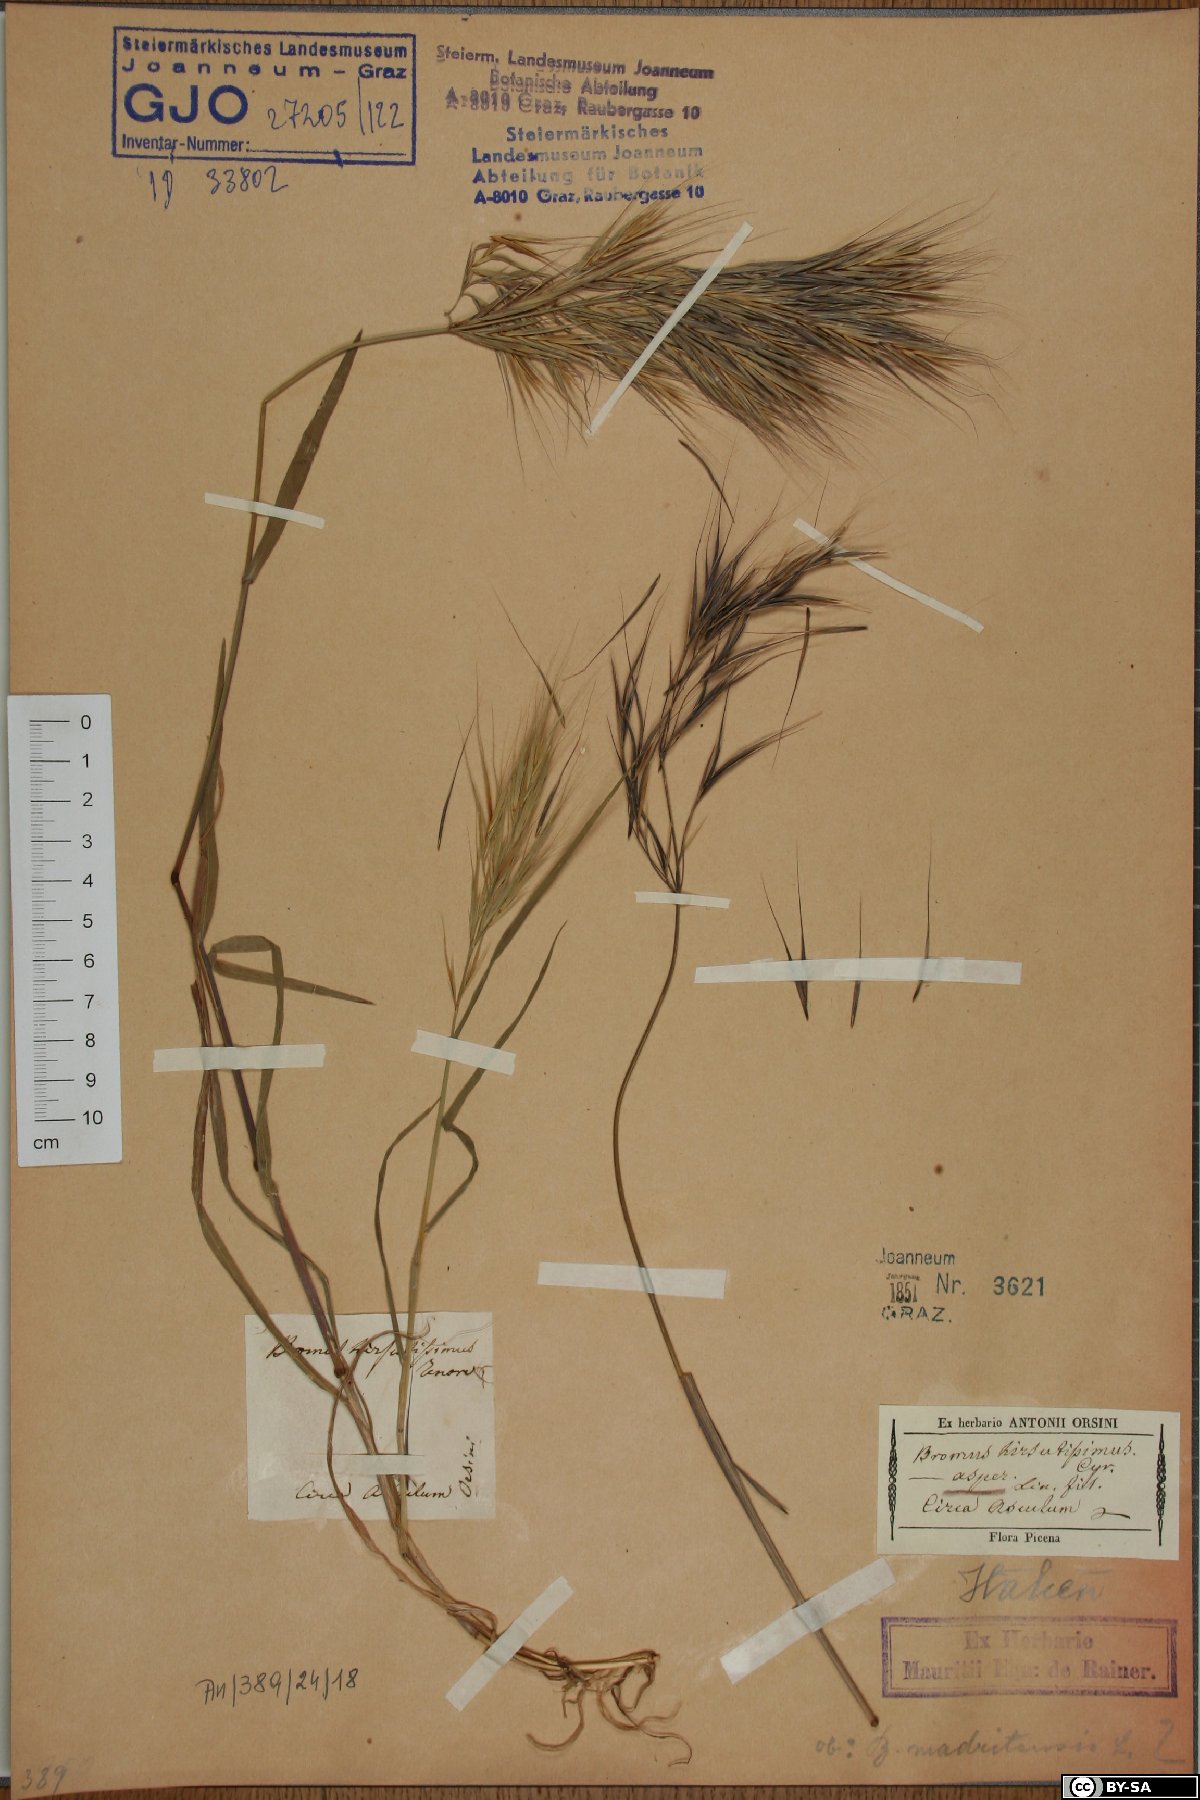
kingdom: Plantae
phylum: Tracheophyta
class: Liliopsida
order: Poales
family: Poaceae
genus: Bromus
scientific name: Bromus ramosus
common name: Hairy brome
